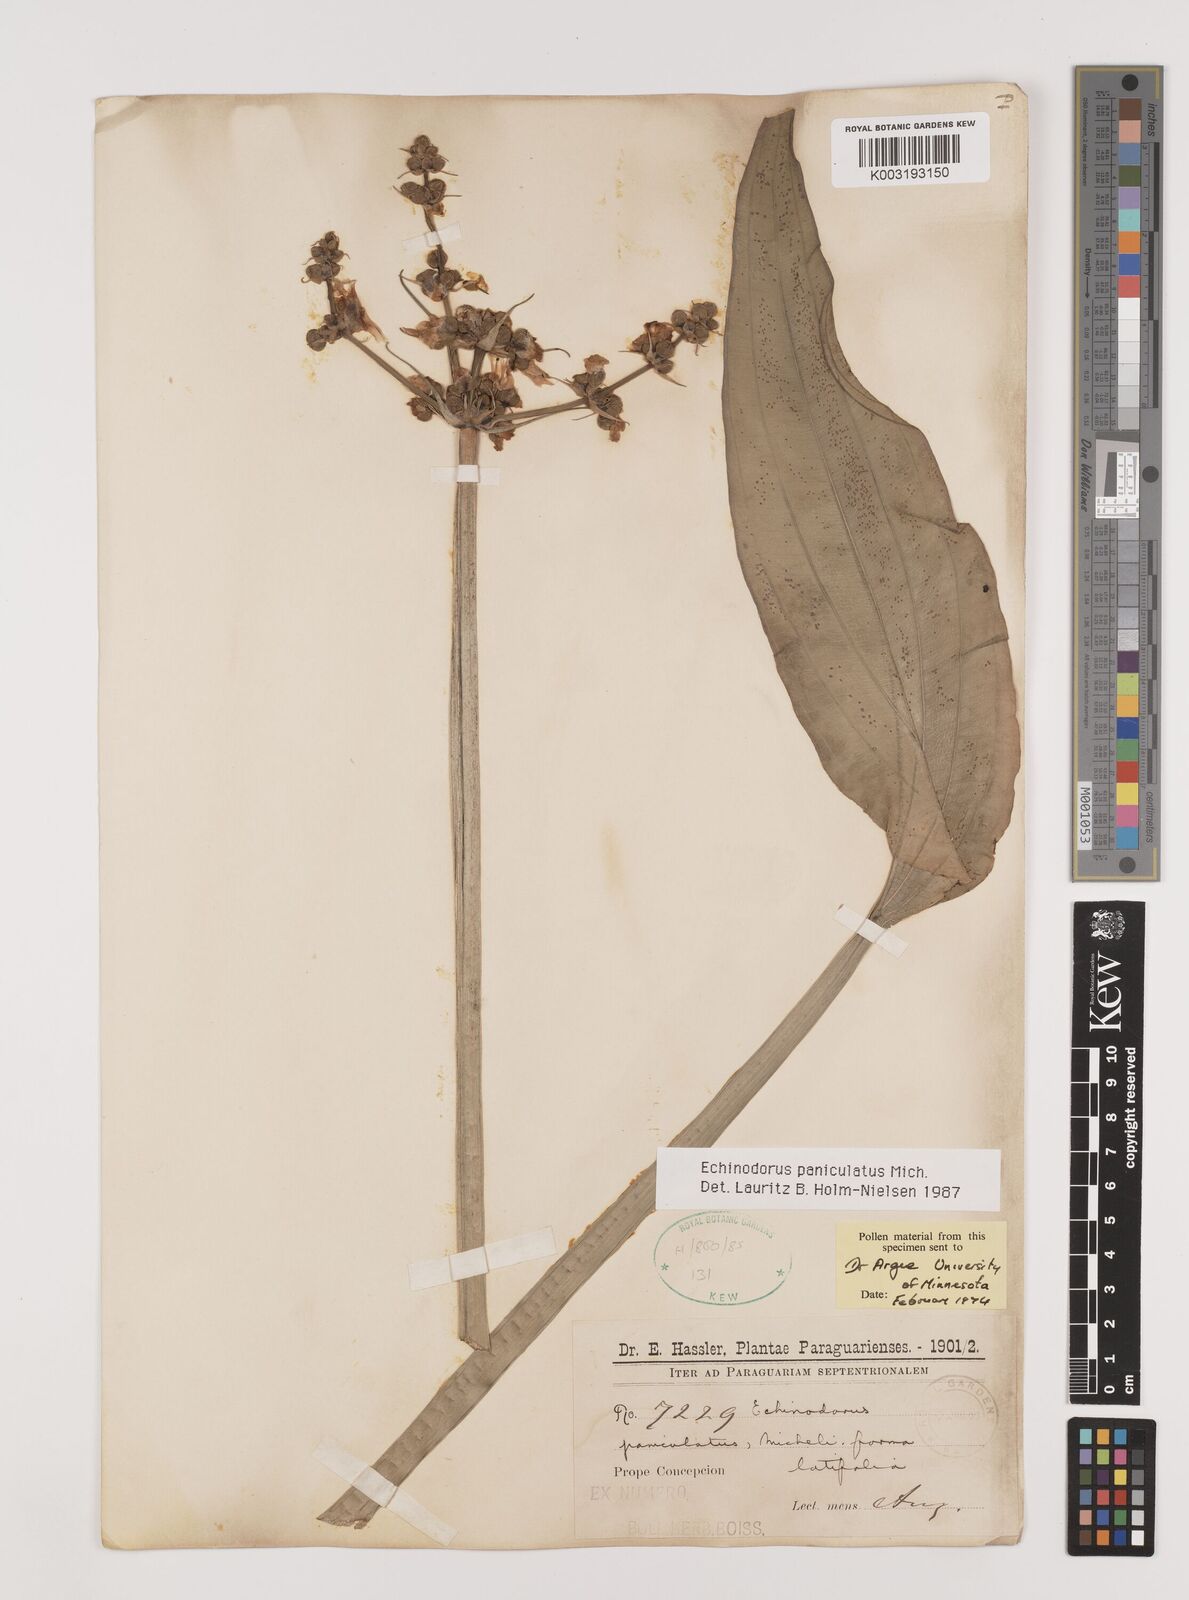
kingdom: Plantae
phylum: Tracheophyta
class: Liliopsida
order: Alismatales
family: Alismataceae
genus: Aquarius
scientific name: Aquarius paniculatus
